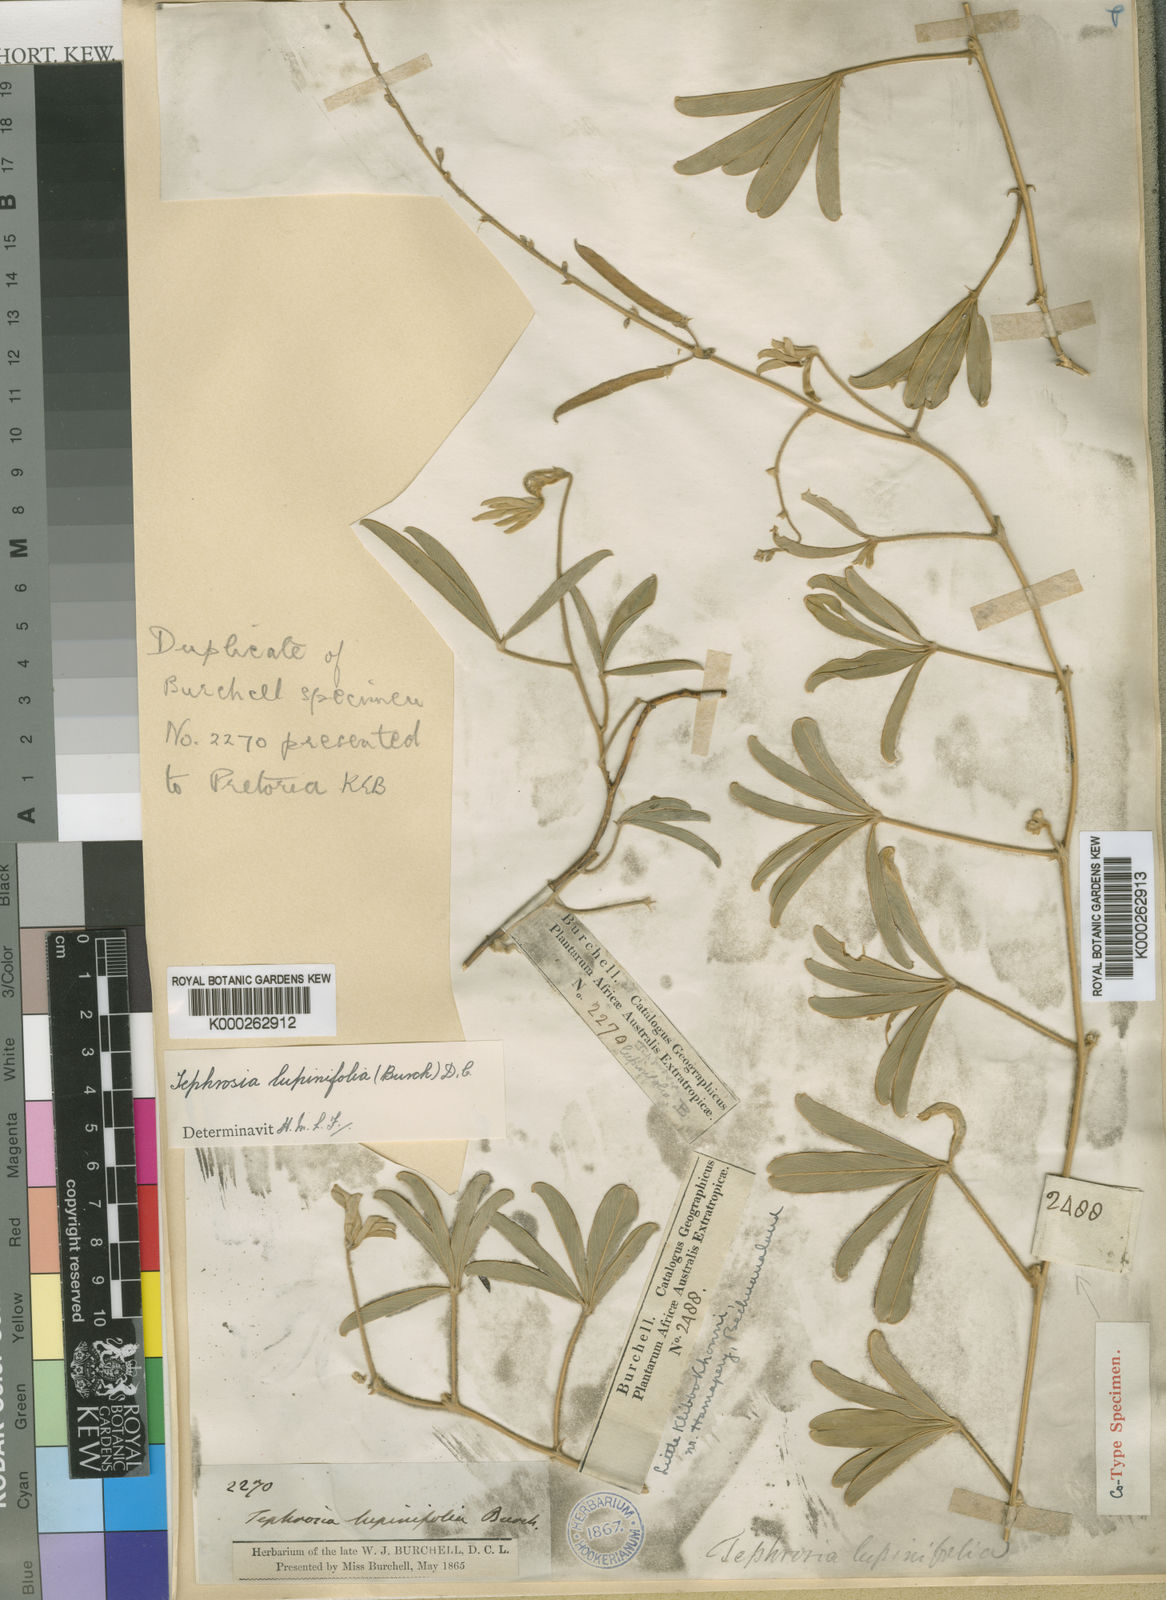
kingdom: Plantae
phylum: Tracheophyta
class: Magnoliopsida
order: Fabales
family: Fabaceae
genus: Tephrosia
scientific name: Tephrosia lupinifolia
